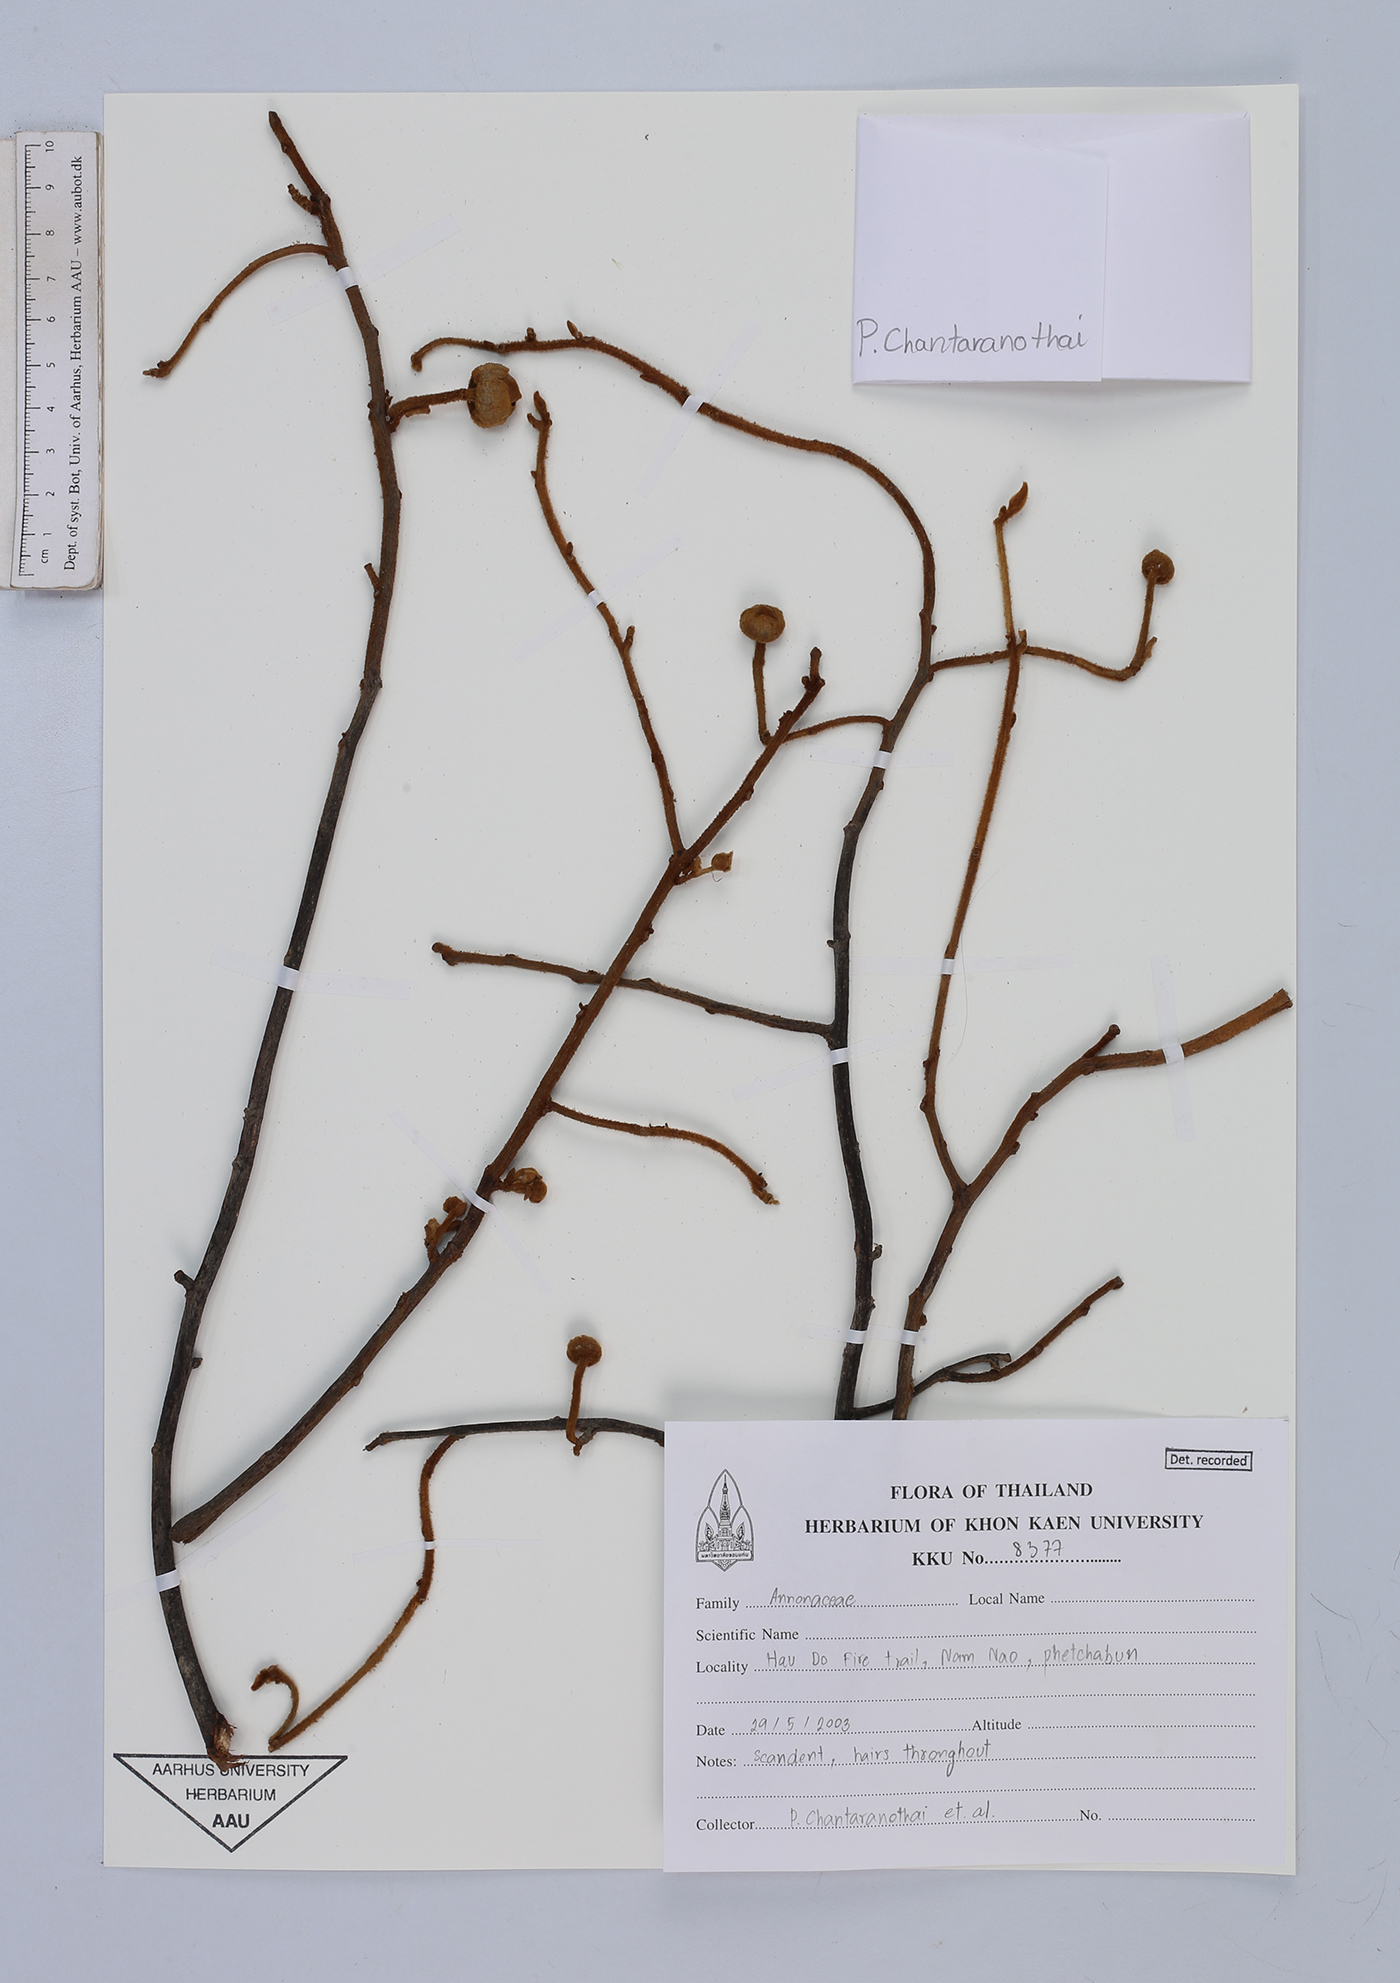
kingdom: Plantae
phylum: Tracheophyta
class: Magnoliopsida
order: Magnoliales
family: Annonaceae
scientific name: Annonaceae
